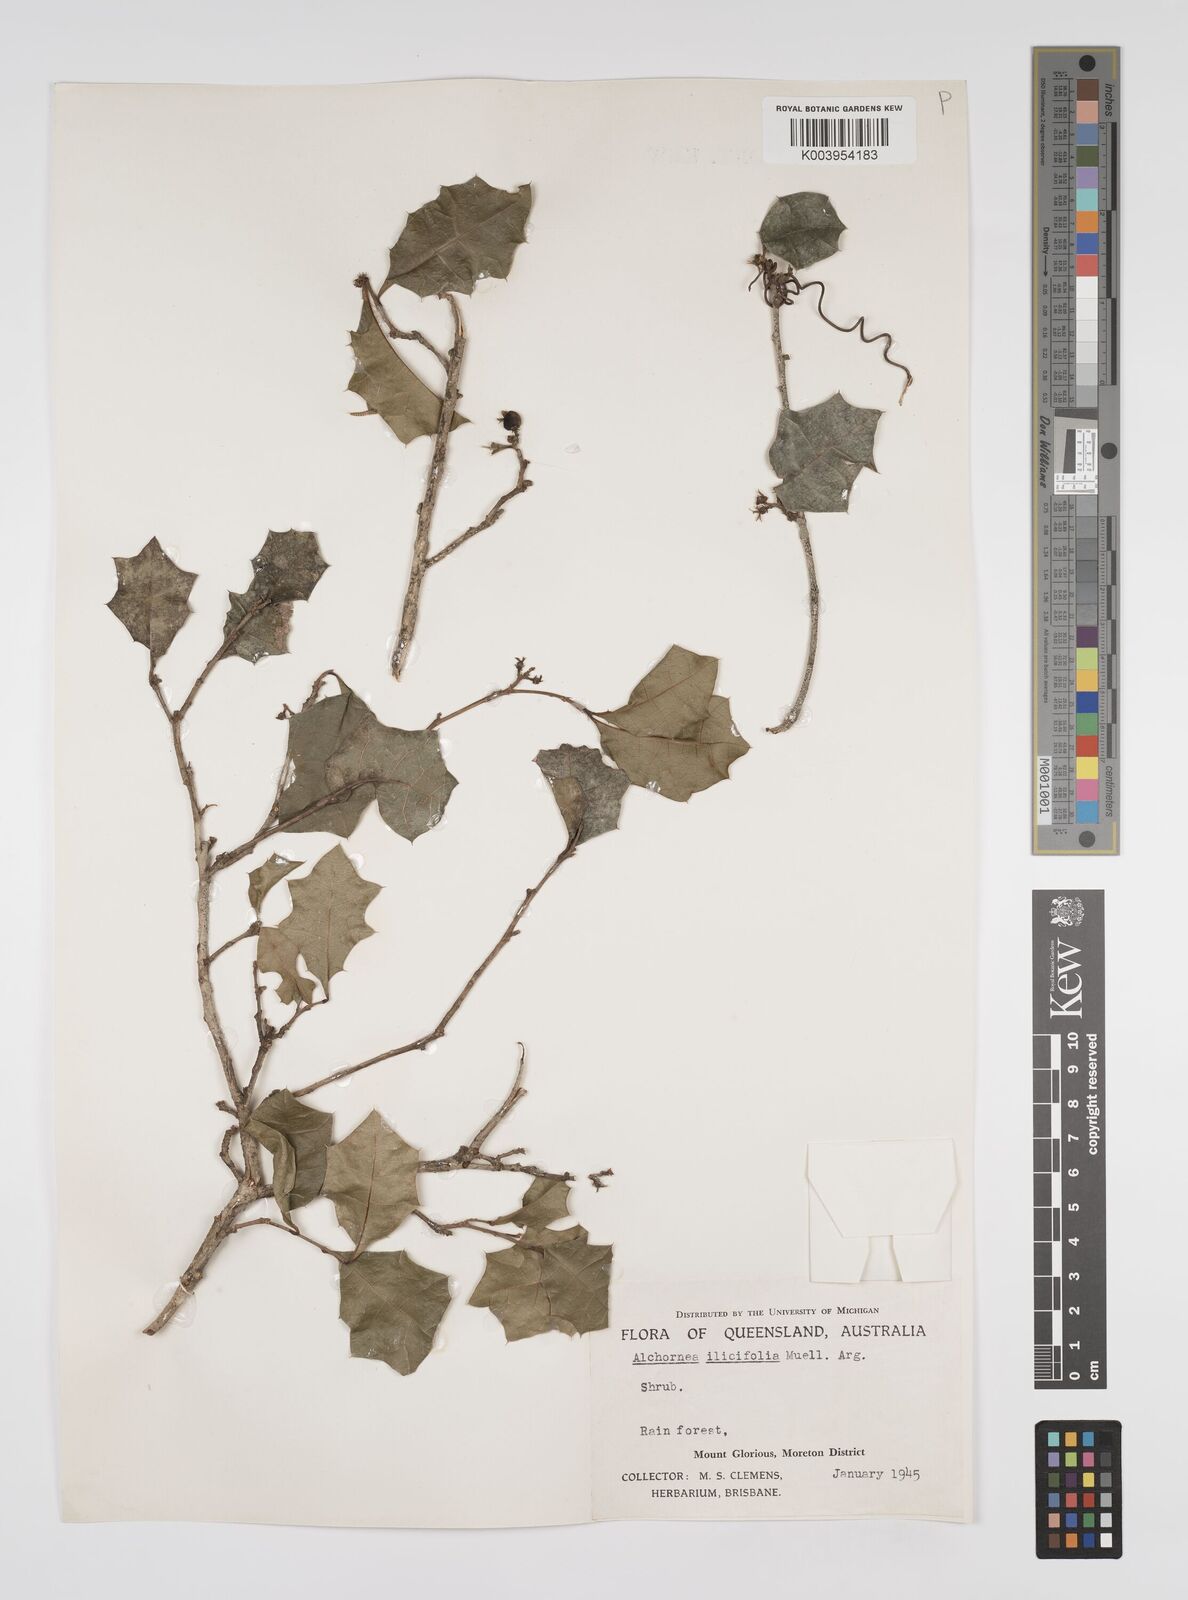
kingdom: Plantae
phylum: Tracheophyta
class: Magnoliopsida
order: Malpighiales
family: Euphorbiaceae
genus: Alchornea
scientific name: Alchornea ilicifolia
